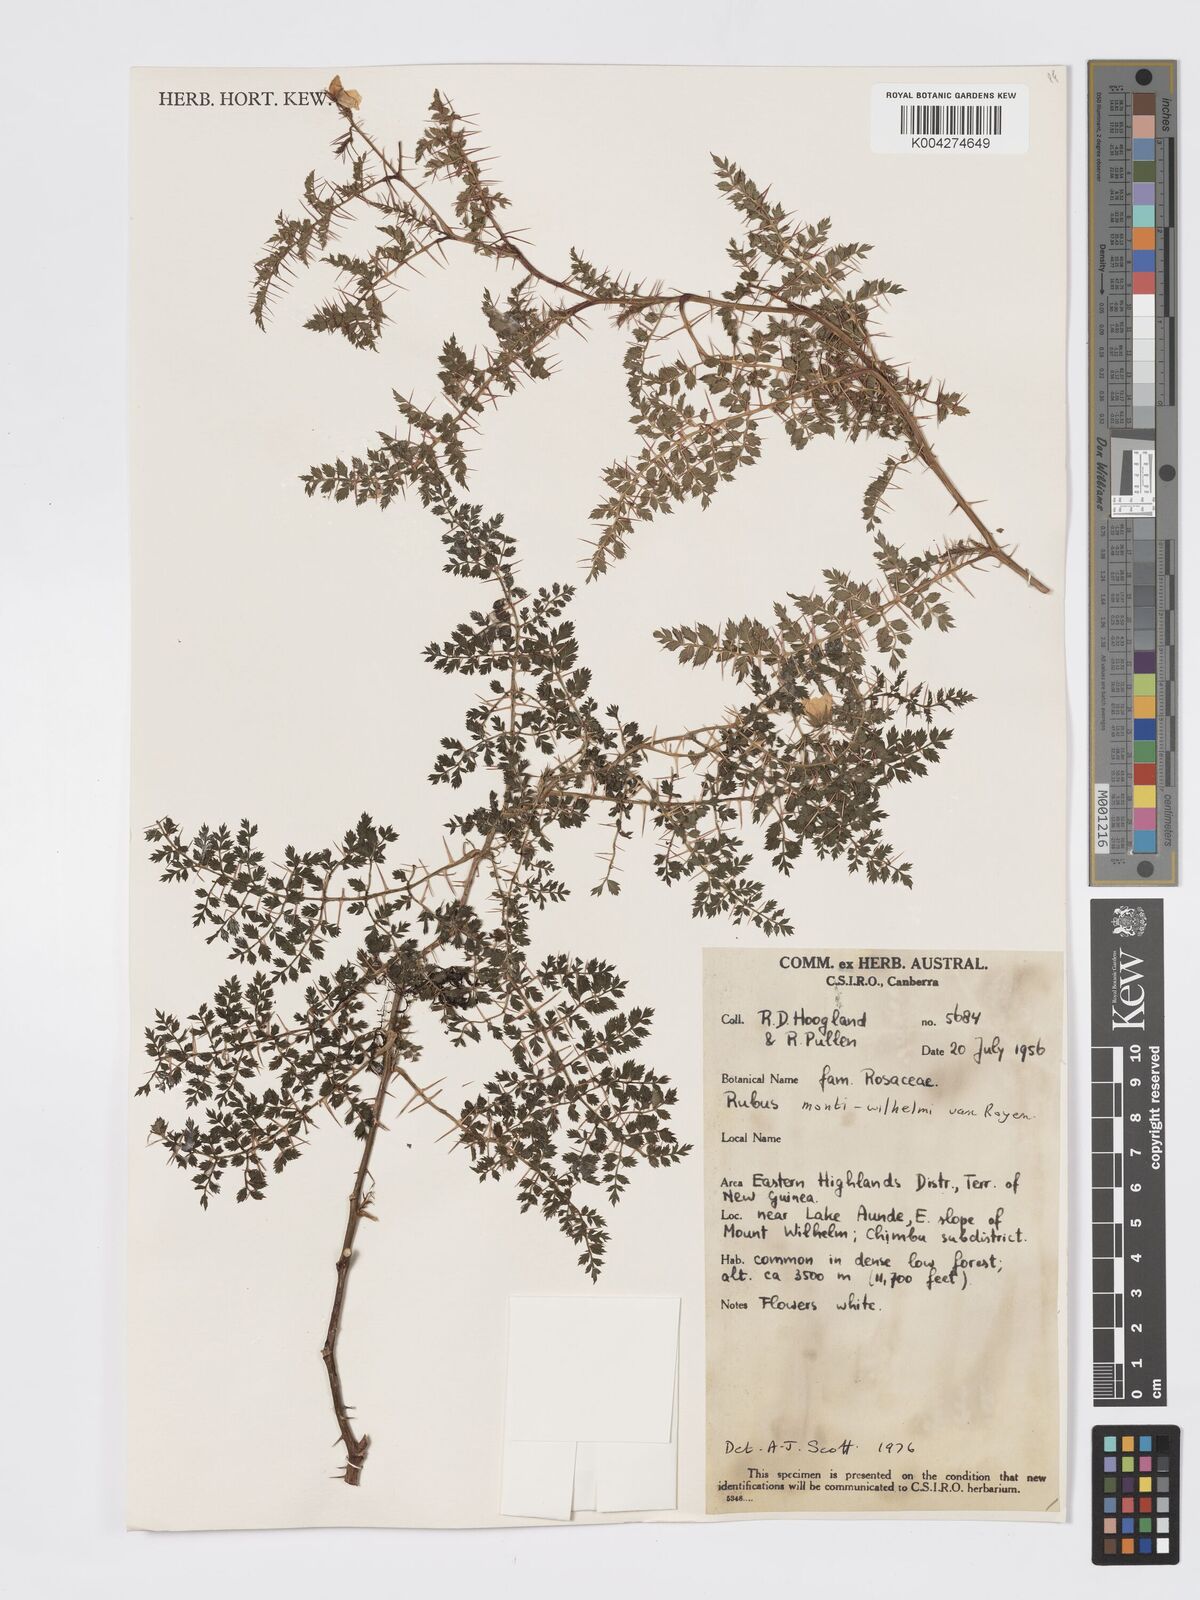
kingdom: Plantae
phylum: Tracheophyta
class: Magnoliopsida
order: Rosales
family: Rosaceae
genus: Rubus
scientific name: Rubus montis-wilhelmii
